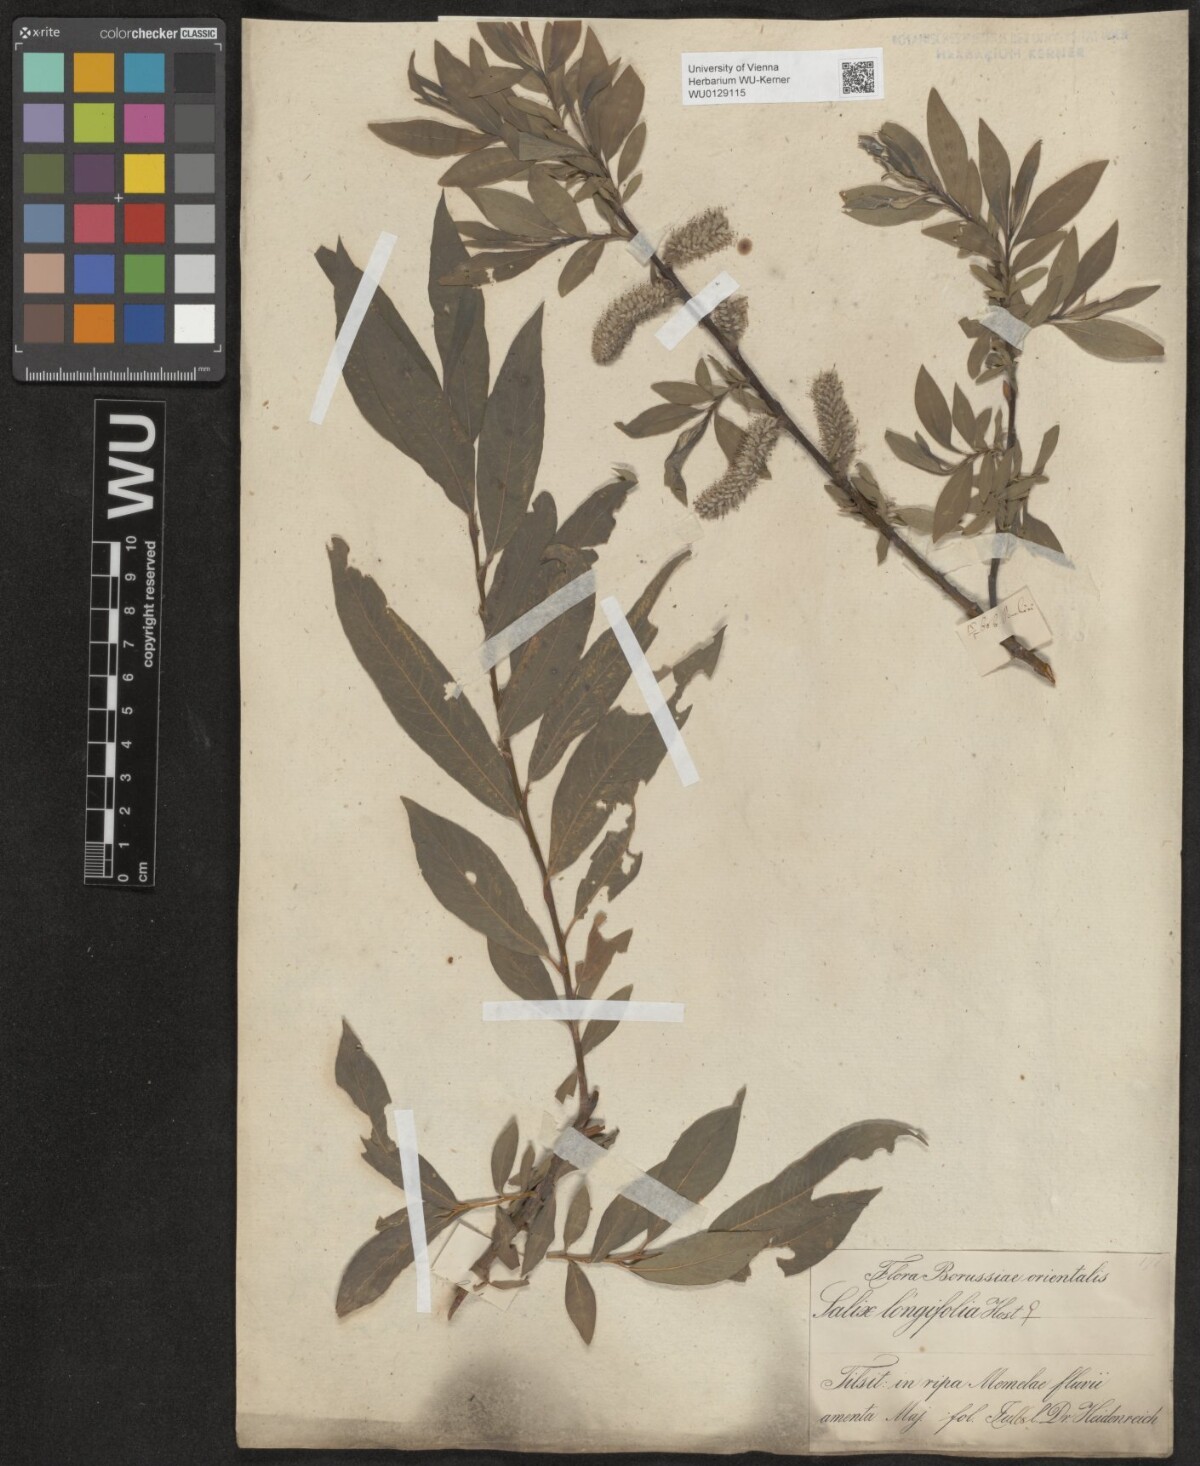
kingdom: Plantae
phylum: Tracheophyta
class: Magnoliopsida
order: Malpighiales
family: Salicaceae
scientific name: Salicaceae
